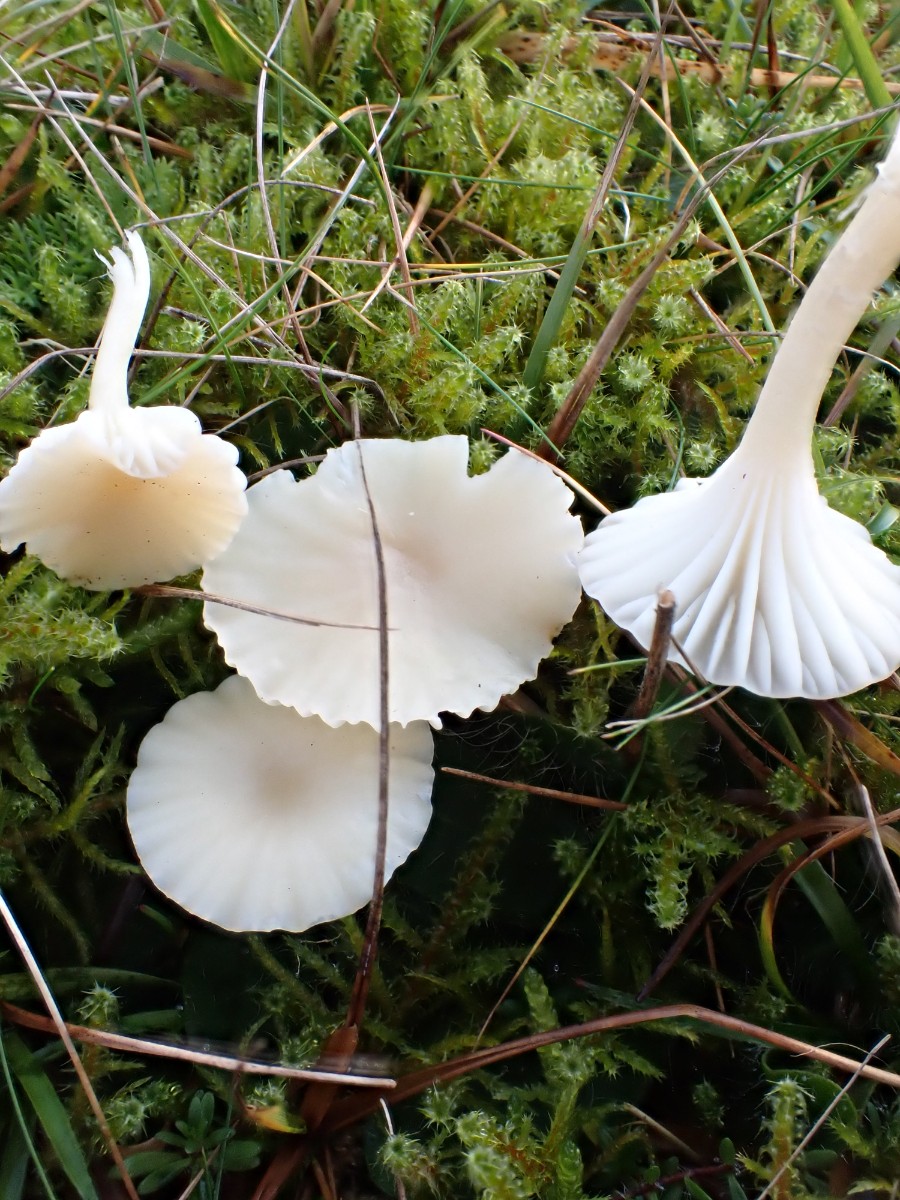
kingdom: Fungi
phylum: Basidiomycota
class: Agaricomycetes
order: Agaricales
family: Hygrophoraceae
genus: Cuphophyllus
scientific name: Cuphophyllus russocoriaceus
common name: ruslæder-vokshat
